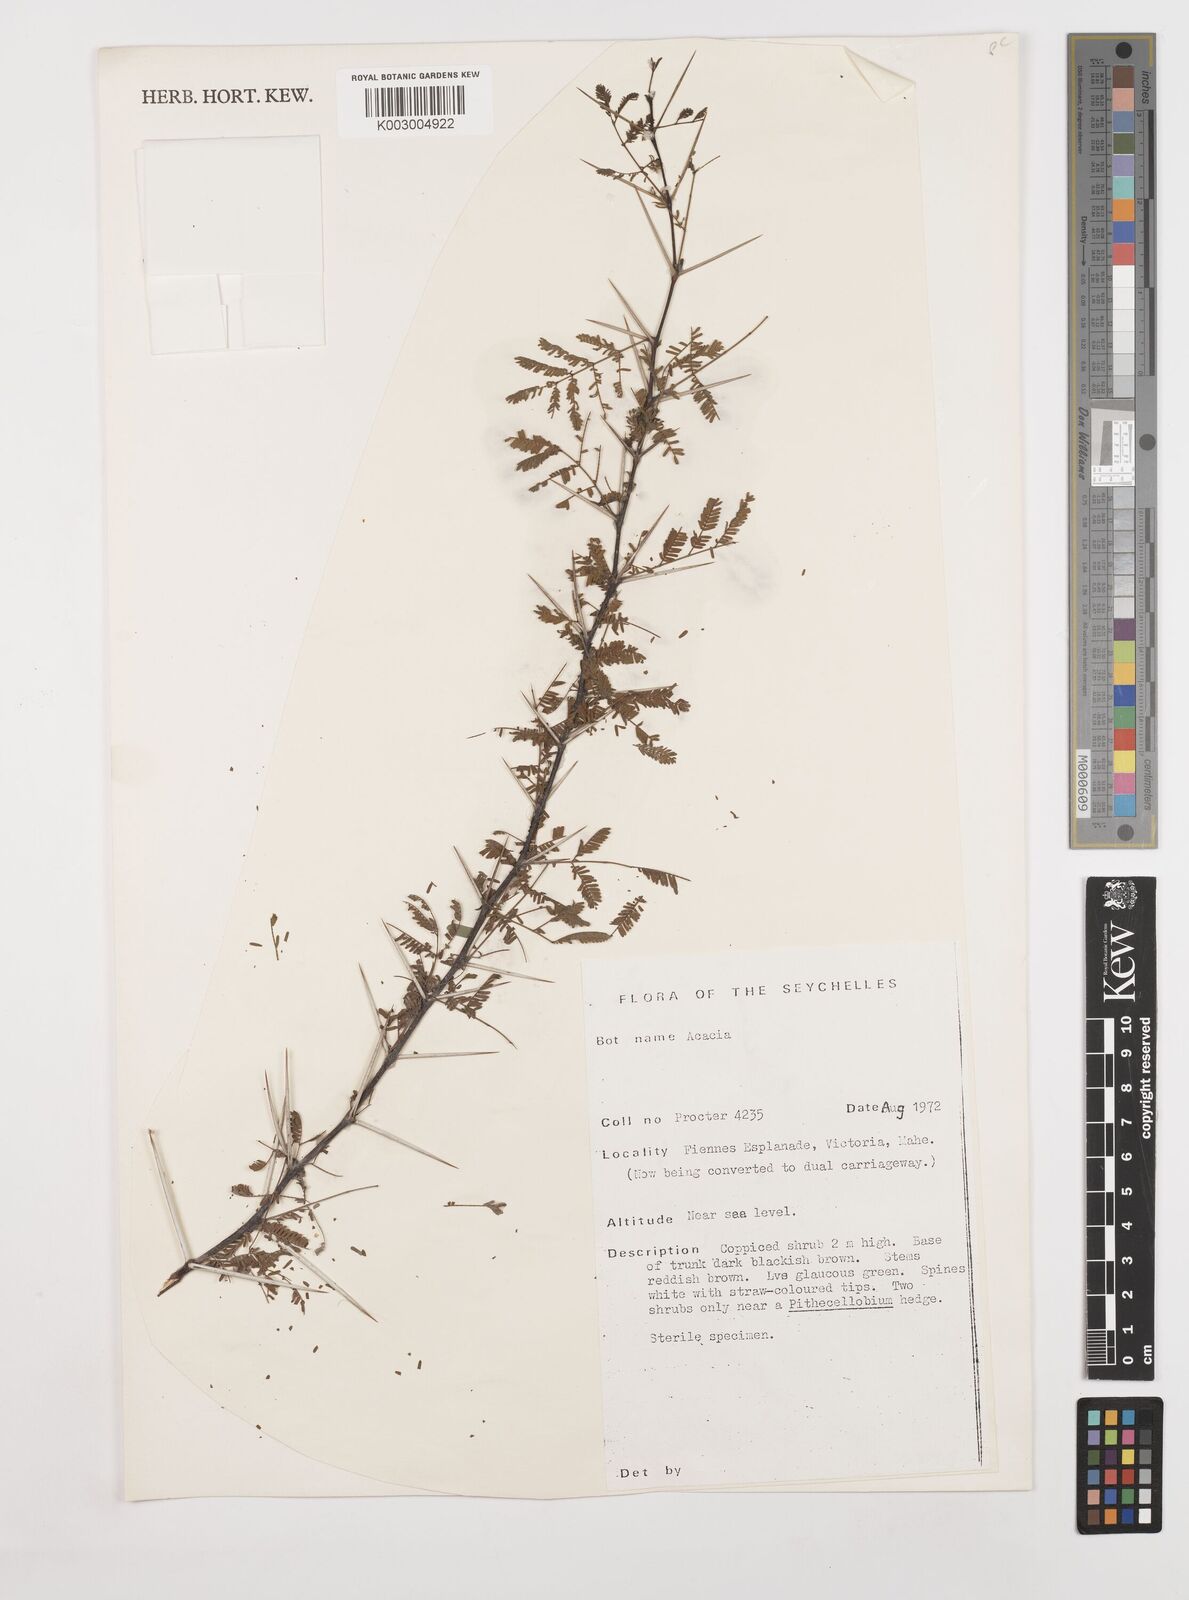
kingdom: Plantae
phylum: Tracheophyta
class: Magnoliopsida
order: Fabales
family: Fabaceae
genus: Acacia
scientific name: Acacia
